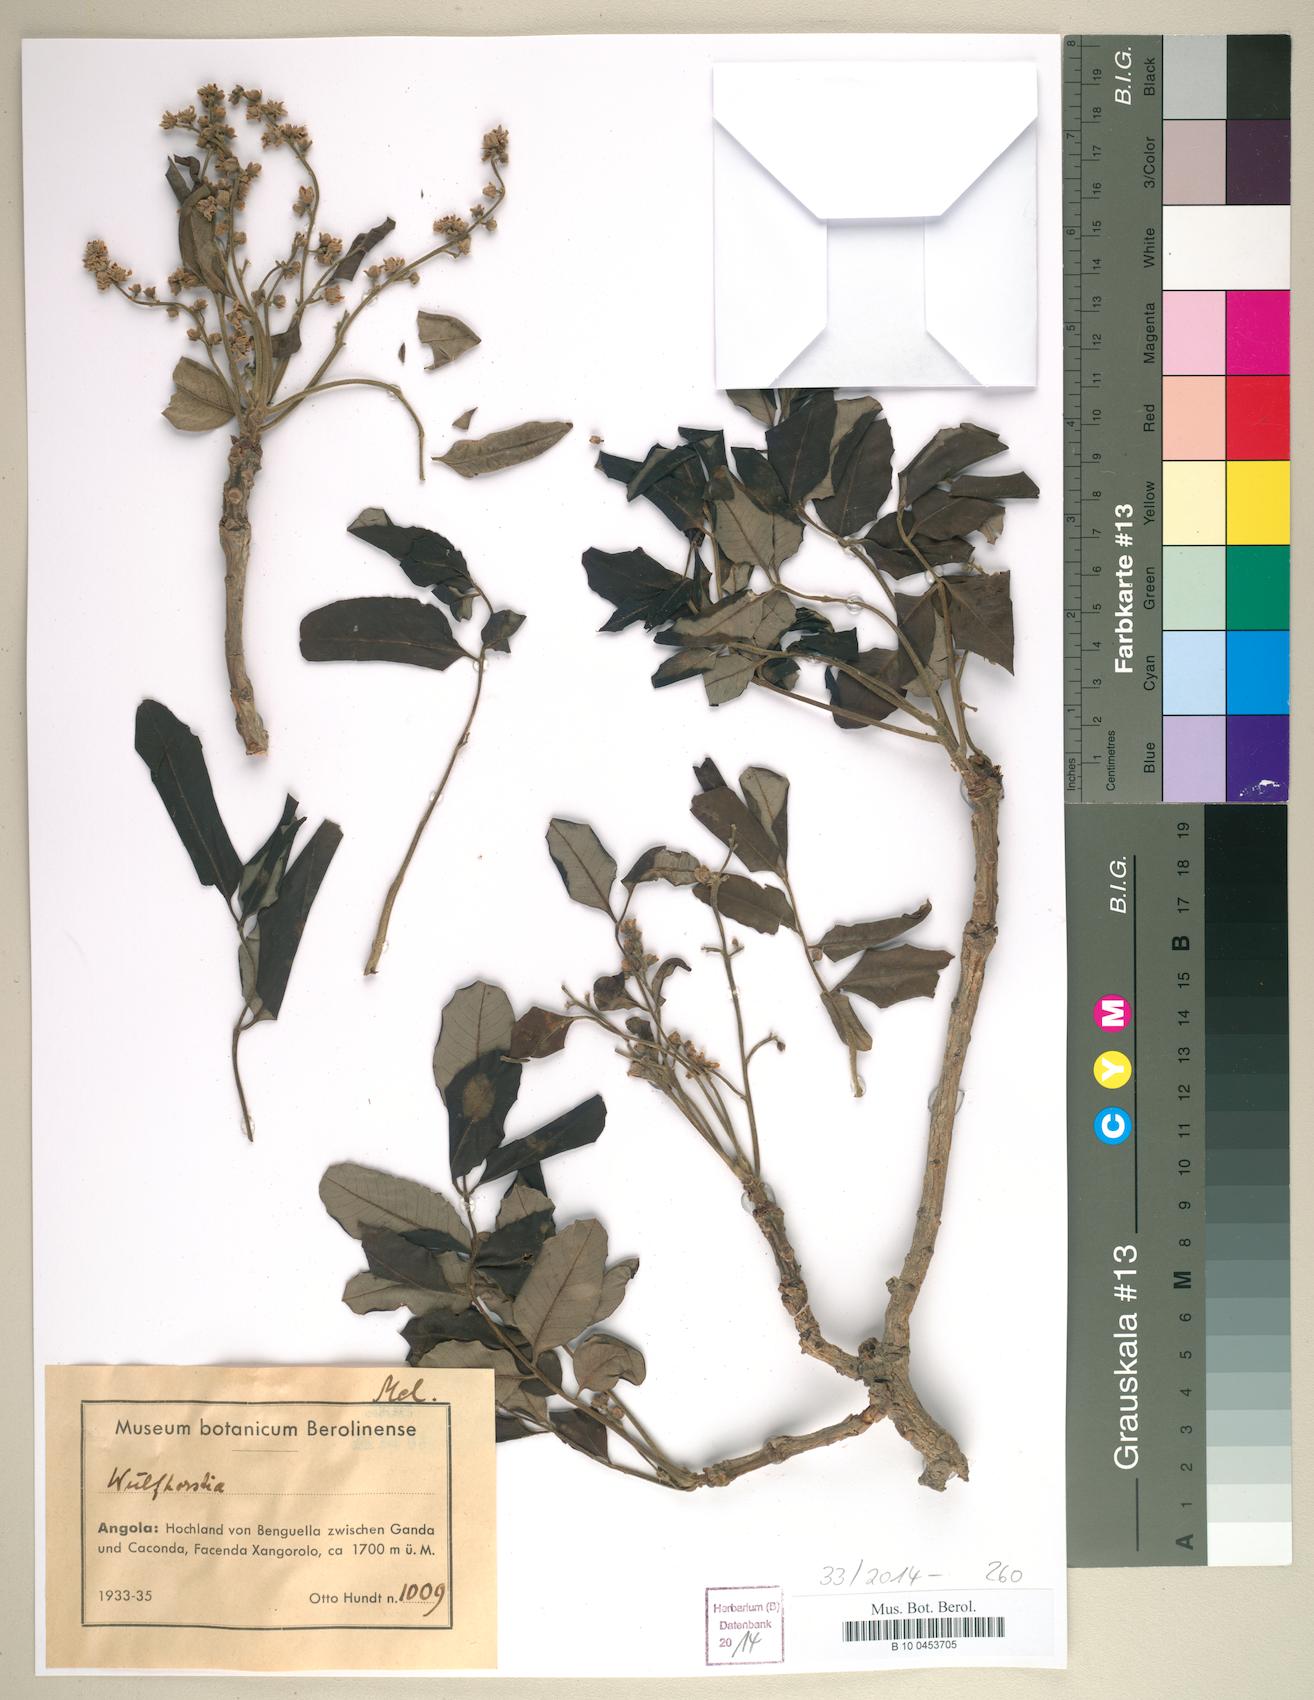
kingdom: Plantae
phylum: Tracheophyta
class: Magnoliopsida
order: Sapindales
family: Meliaceae
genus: Entandrophragma
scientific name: Entandrophragma
